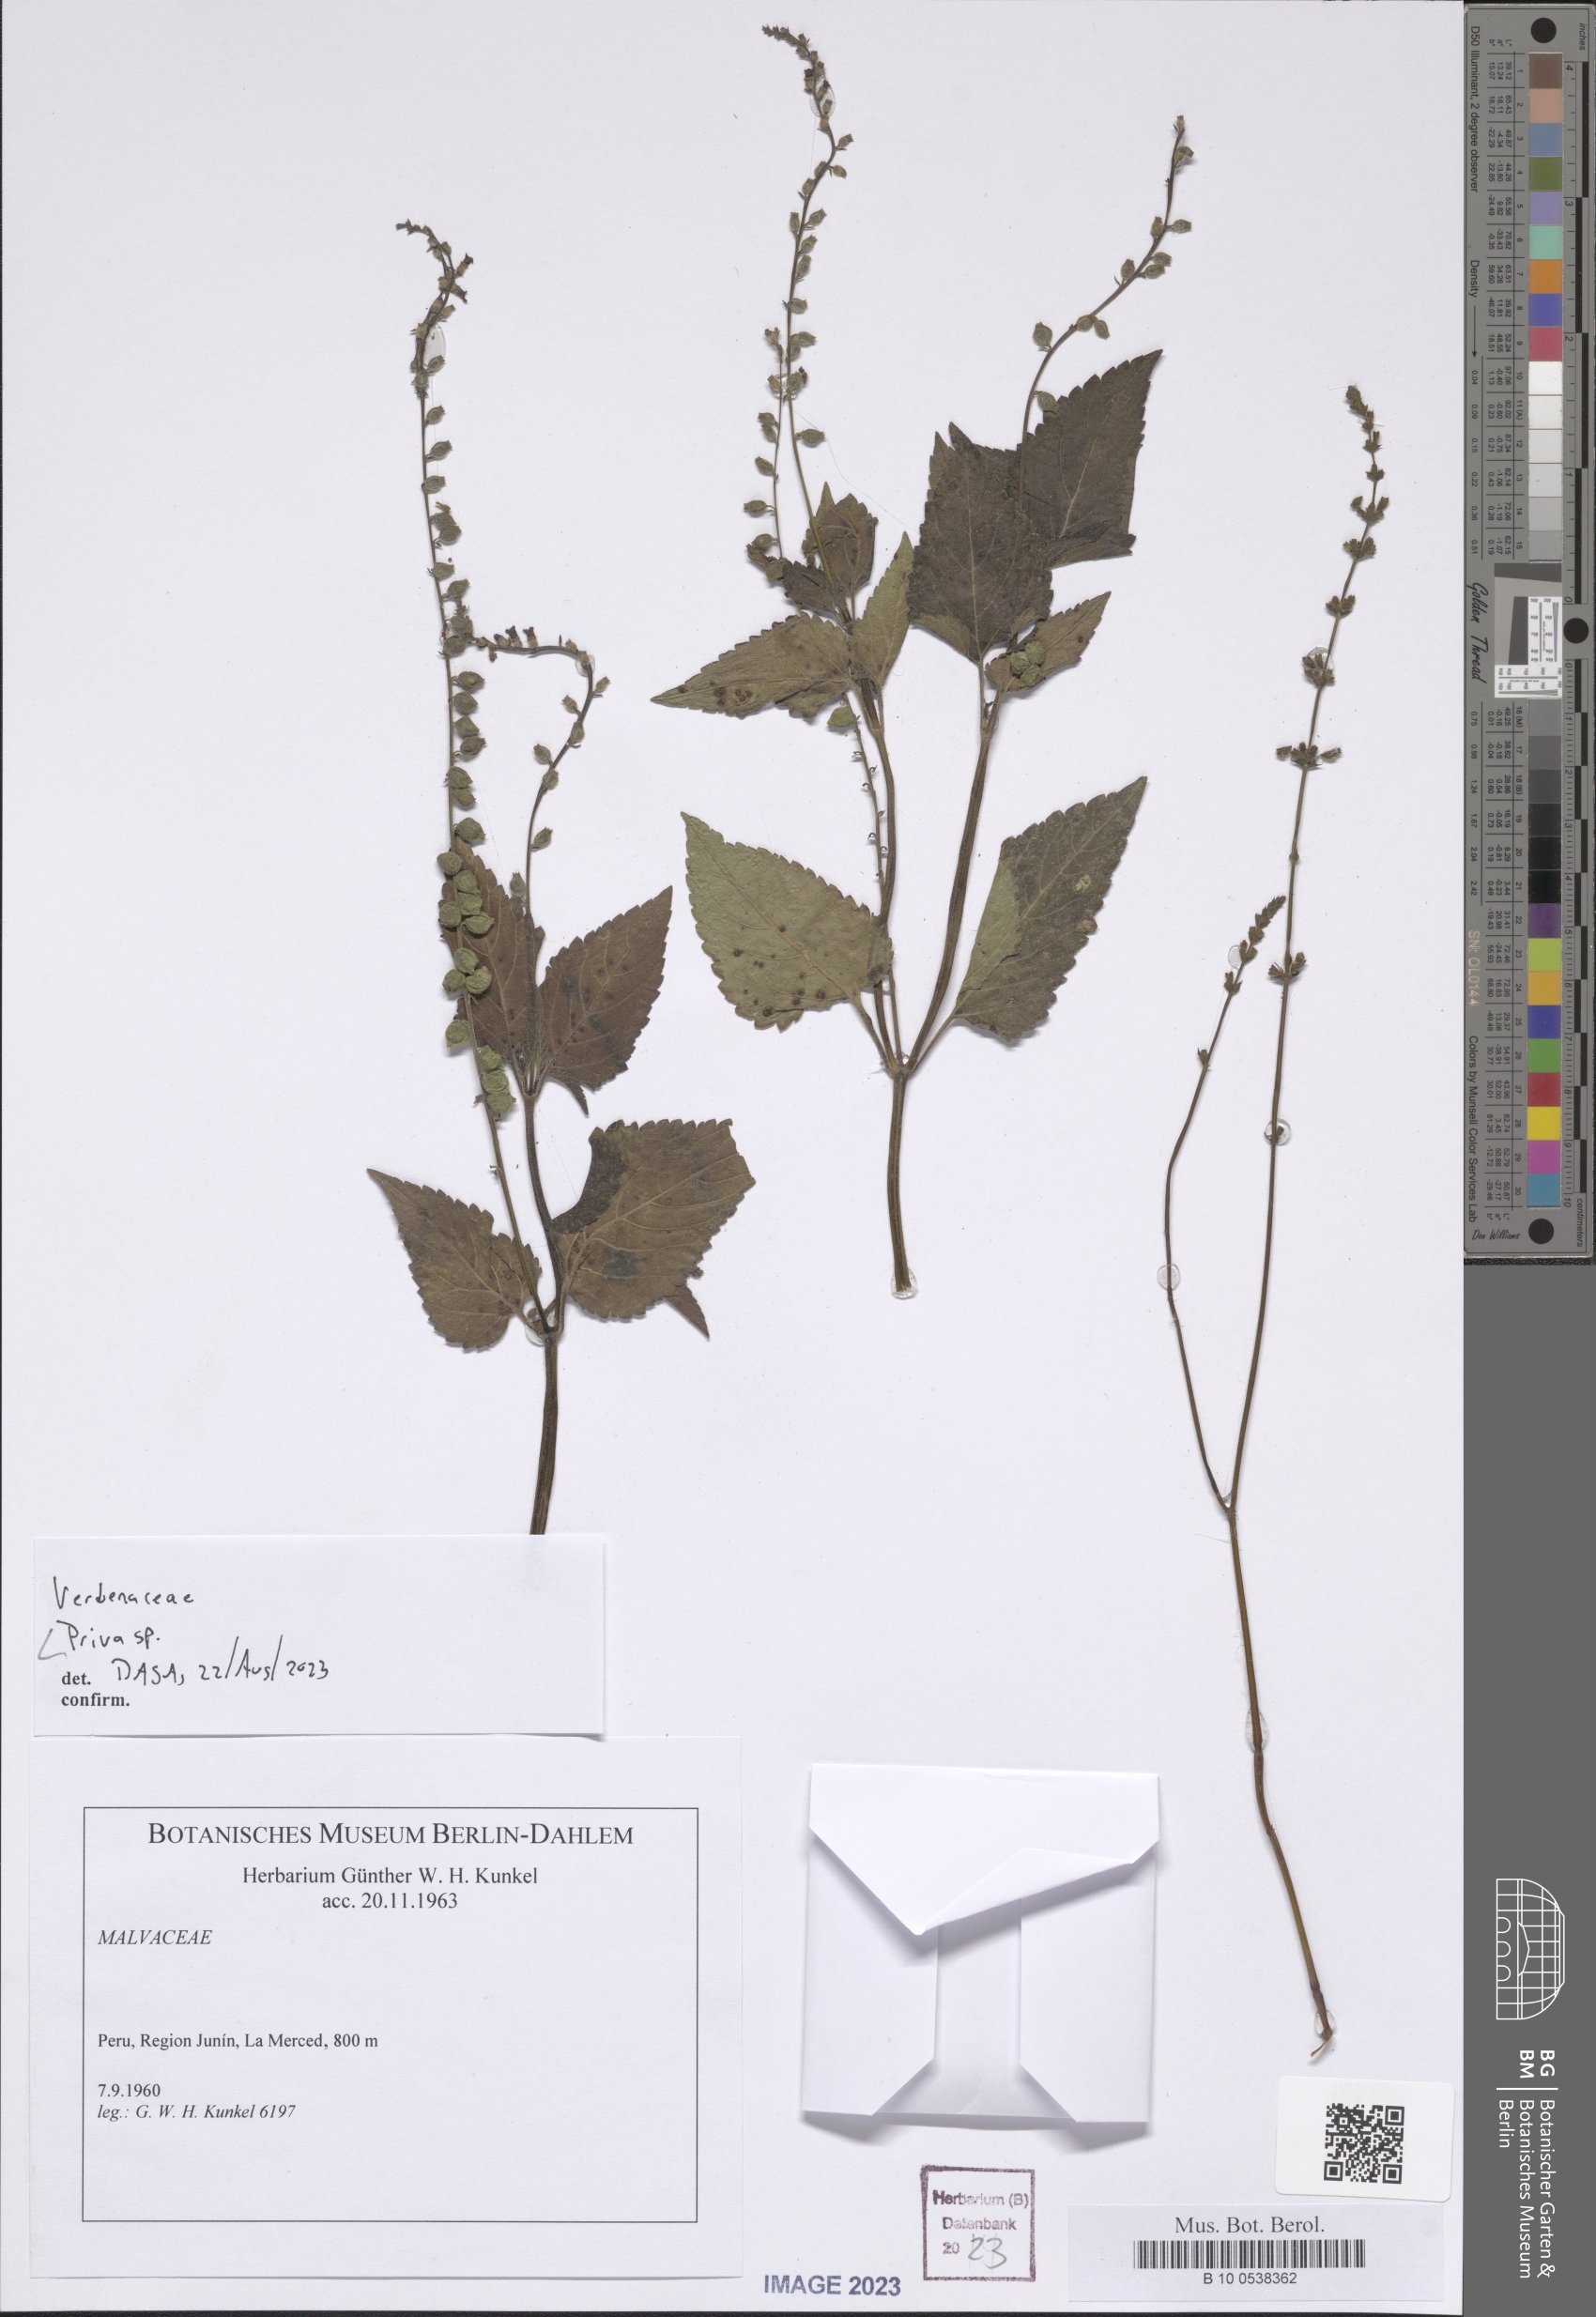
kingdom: Plantae
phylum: Tracheophyta
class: Magnoliopsida
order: Lamiales
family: Verbenaceae
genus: Priva
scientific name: Priva
